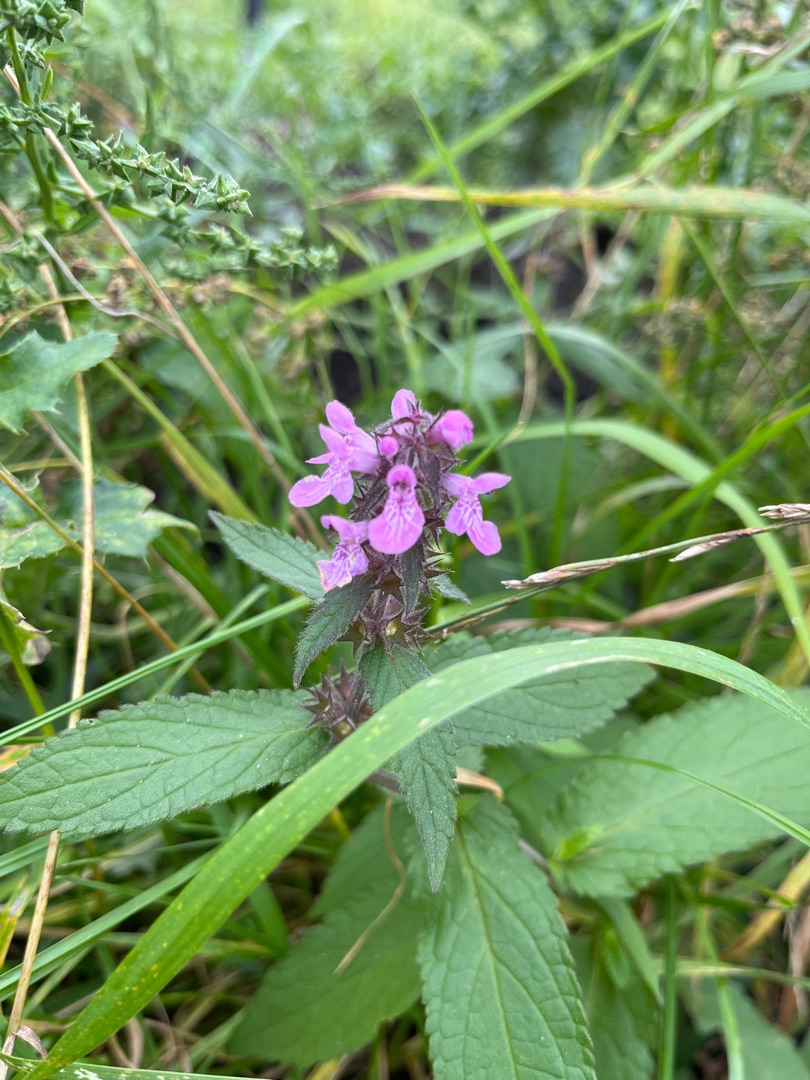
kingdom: Plantae
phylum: Tracheophyta
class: Magnoliopsida
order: Lamiales
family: Lamiaceae
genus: Stachys
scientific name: Stachys palustris
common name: Kær-galtetand
